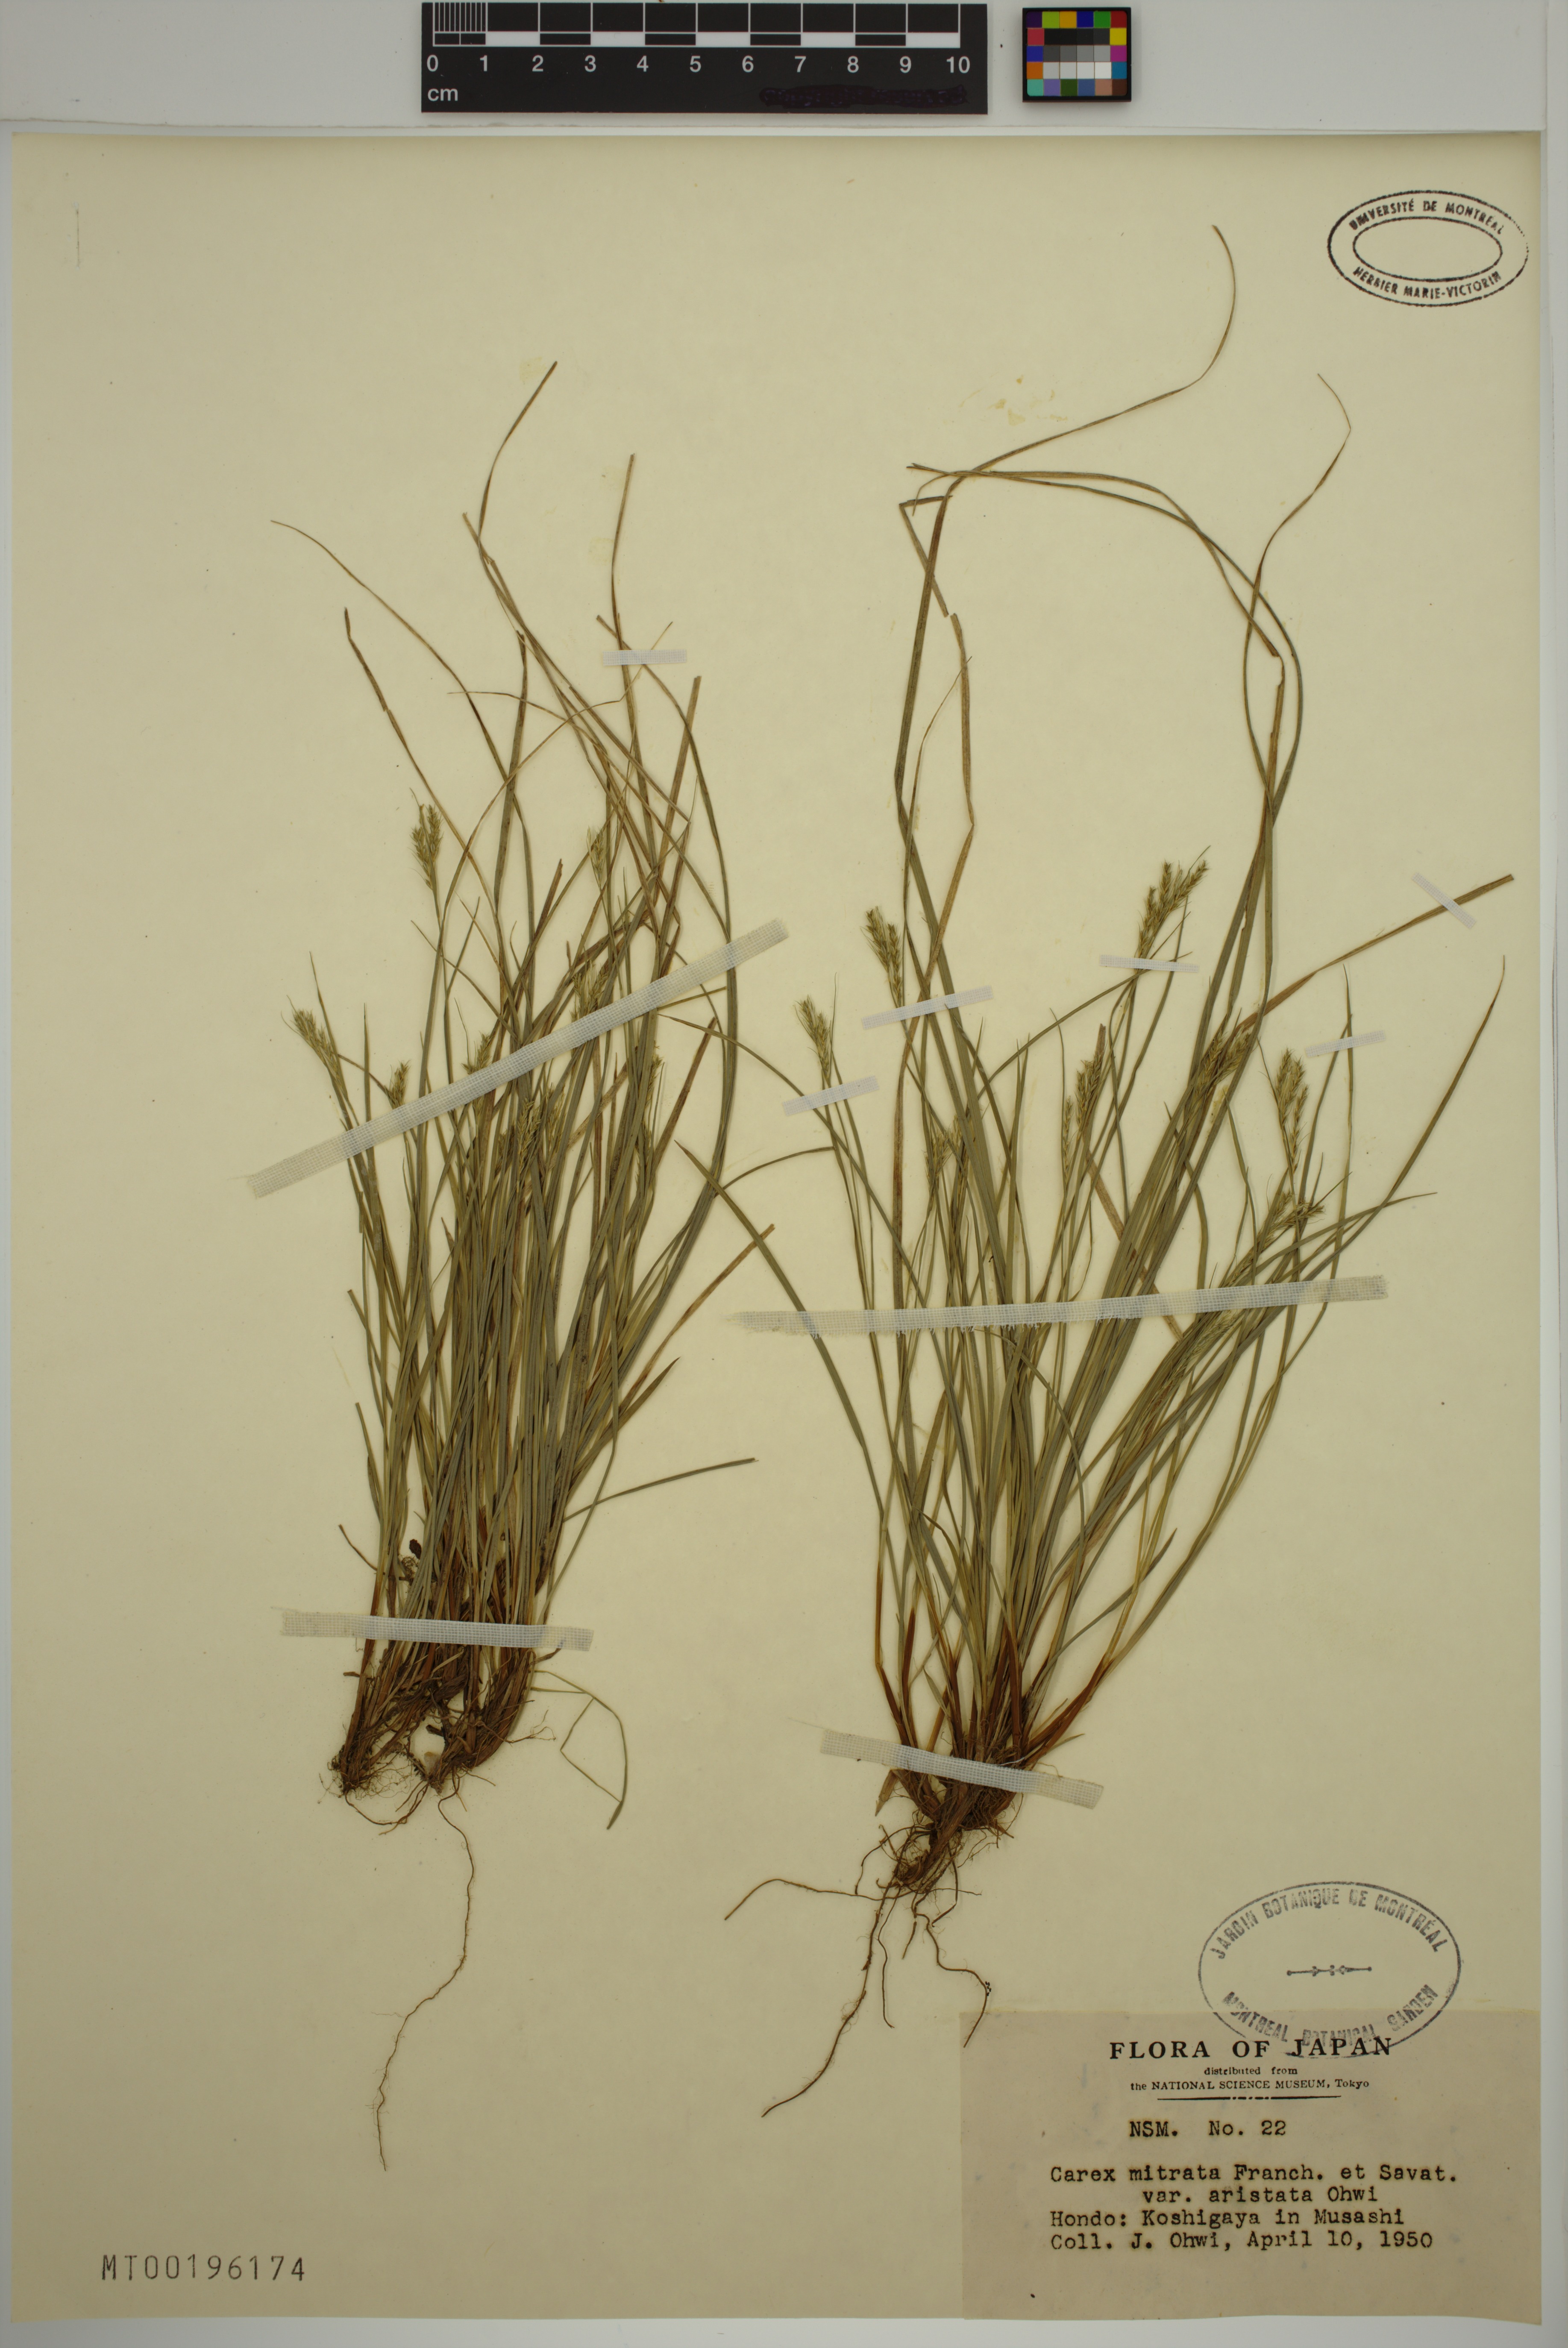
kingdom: Plantae
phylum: Tracheophyta
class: Liliopsida
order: Poales
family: Cyperaceae
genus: Carex
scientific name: Carex mitrata
